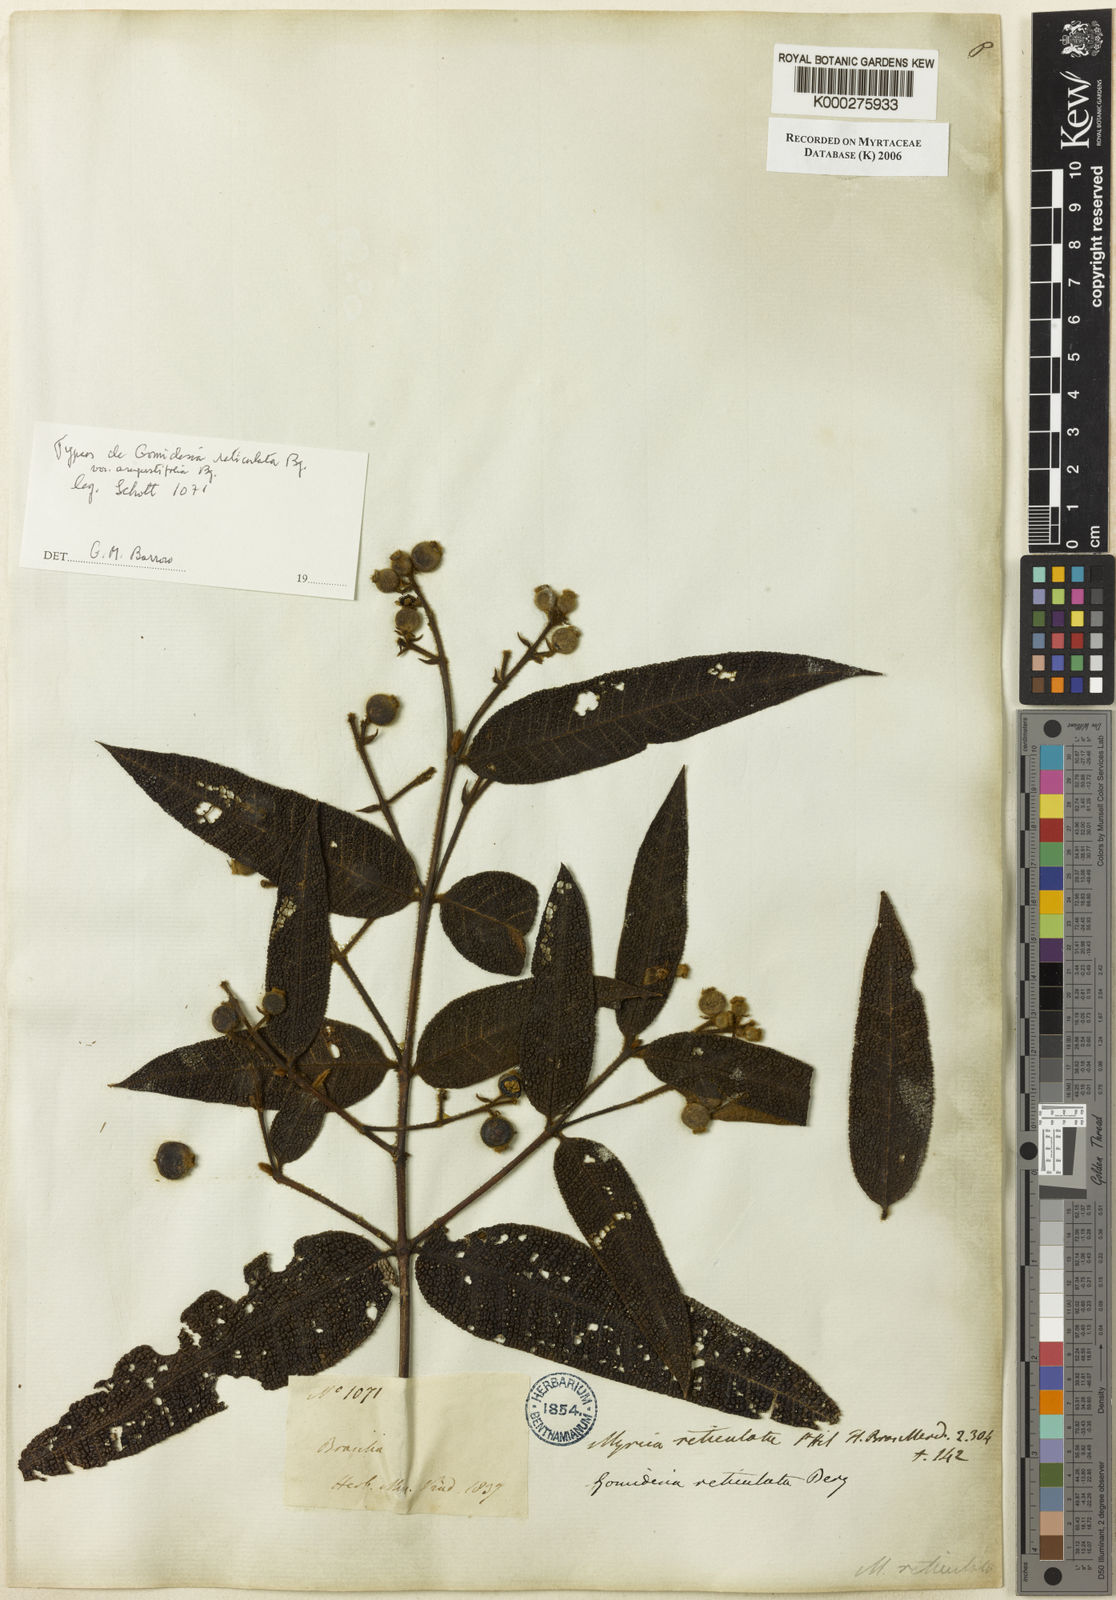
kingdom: Plantae
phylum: Tracheophyta
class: Magnoliopsida
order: Myrtales
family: Myrtaceae
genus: Myrcia
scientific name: Myrcia reticulata
